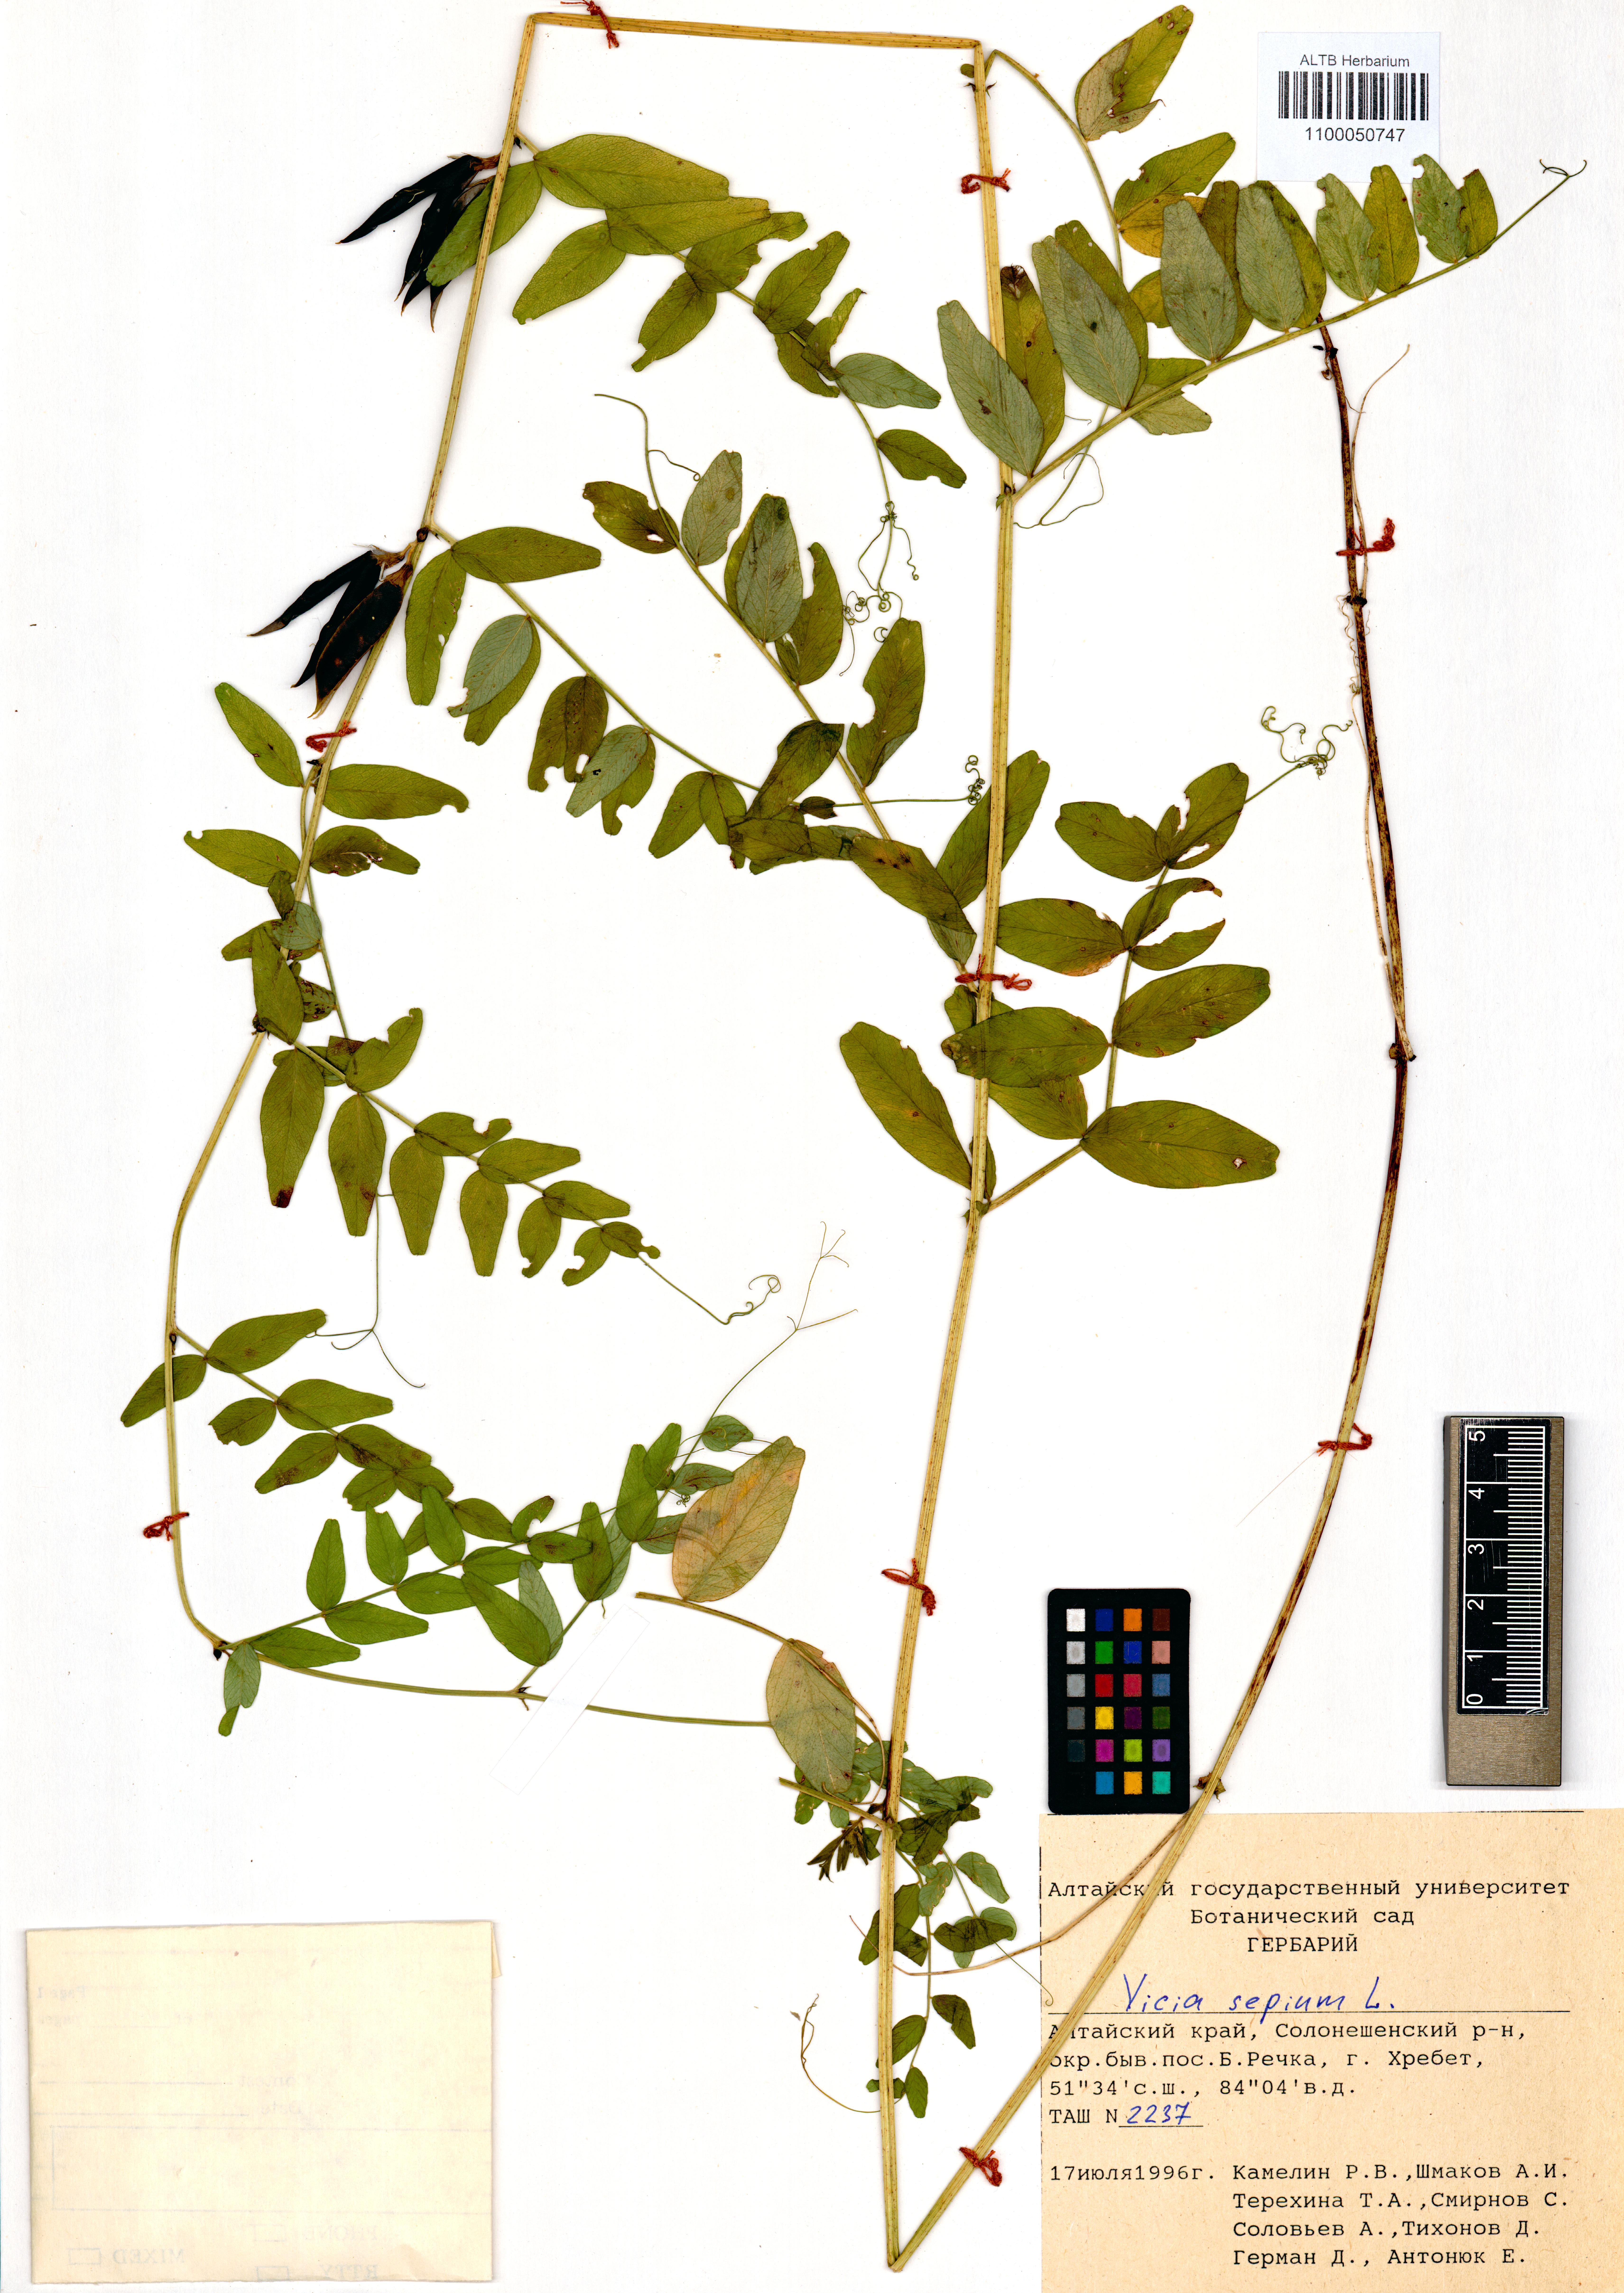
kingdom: Plantae
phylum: Tracheophyta
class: Magnoliopsida
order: Fabales
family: Fabaceae
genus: Vicia
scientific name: Vicia sepium
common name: Bush vetch
